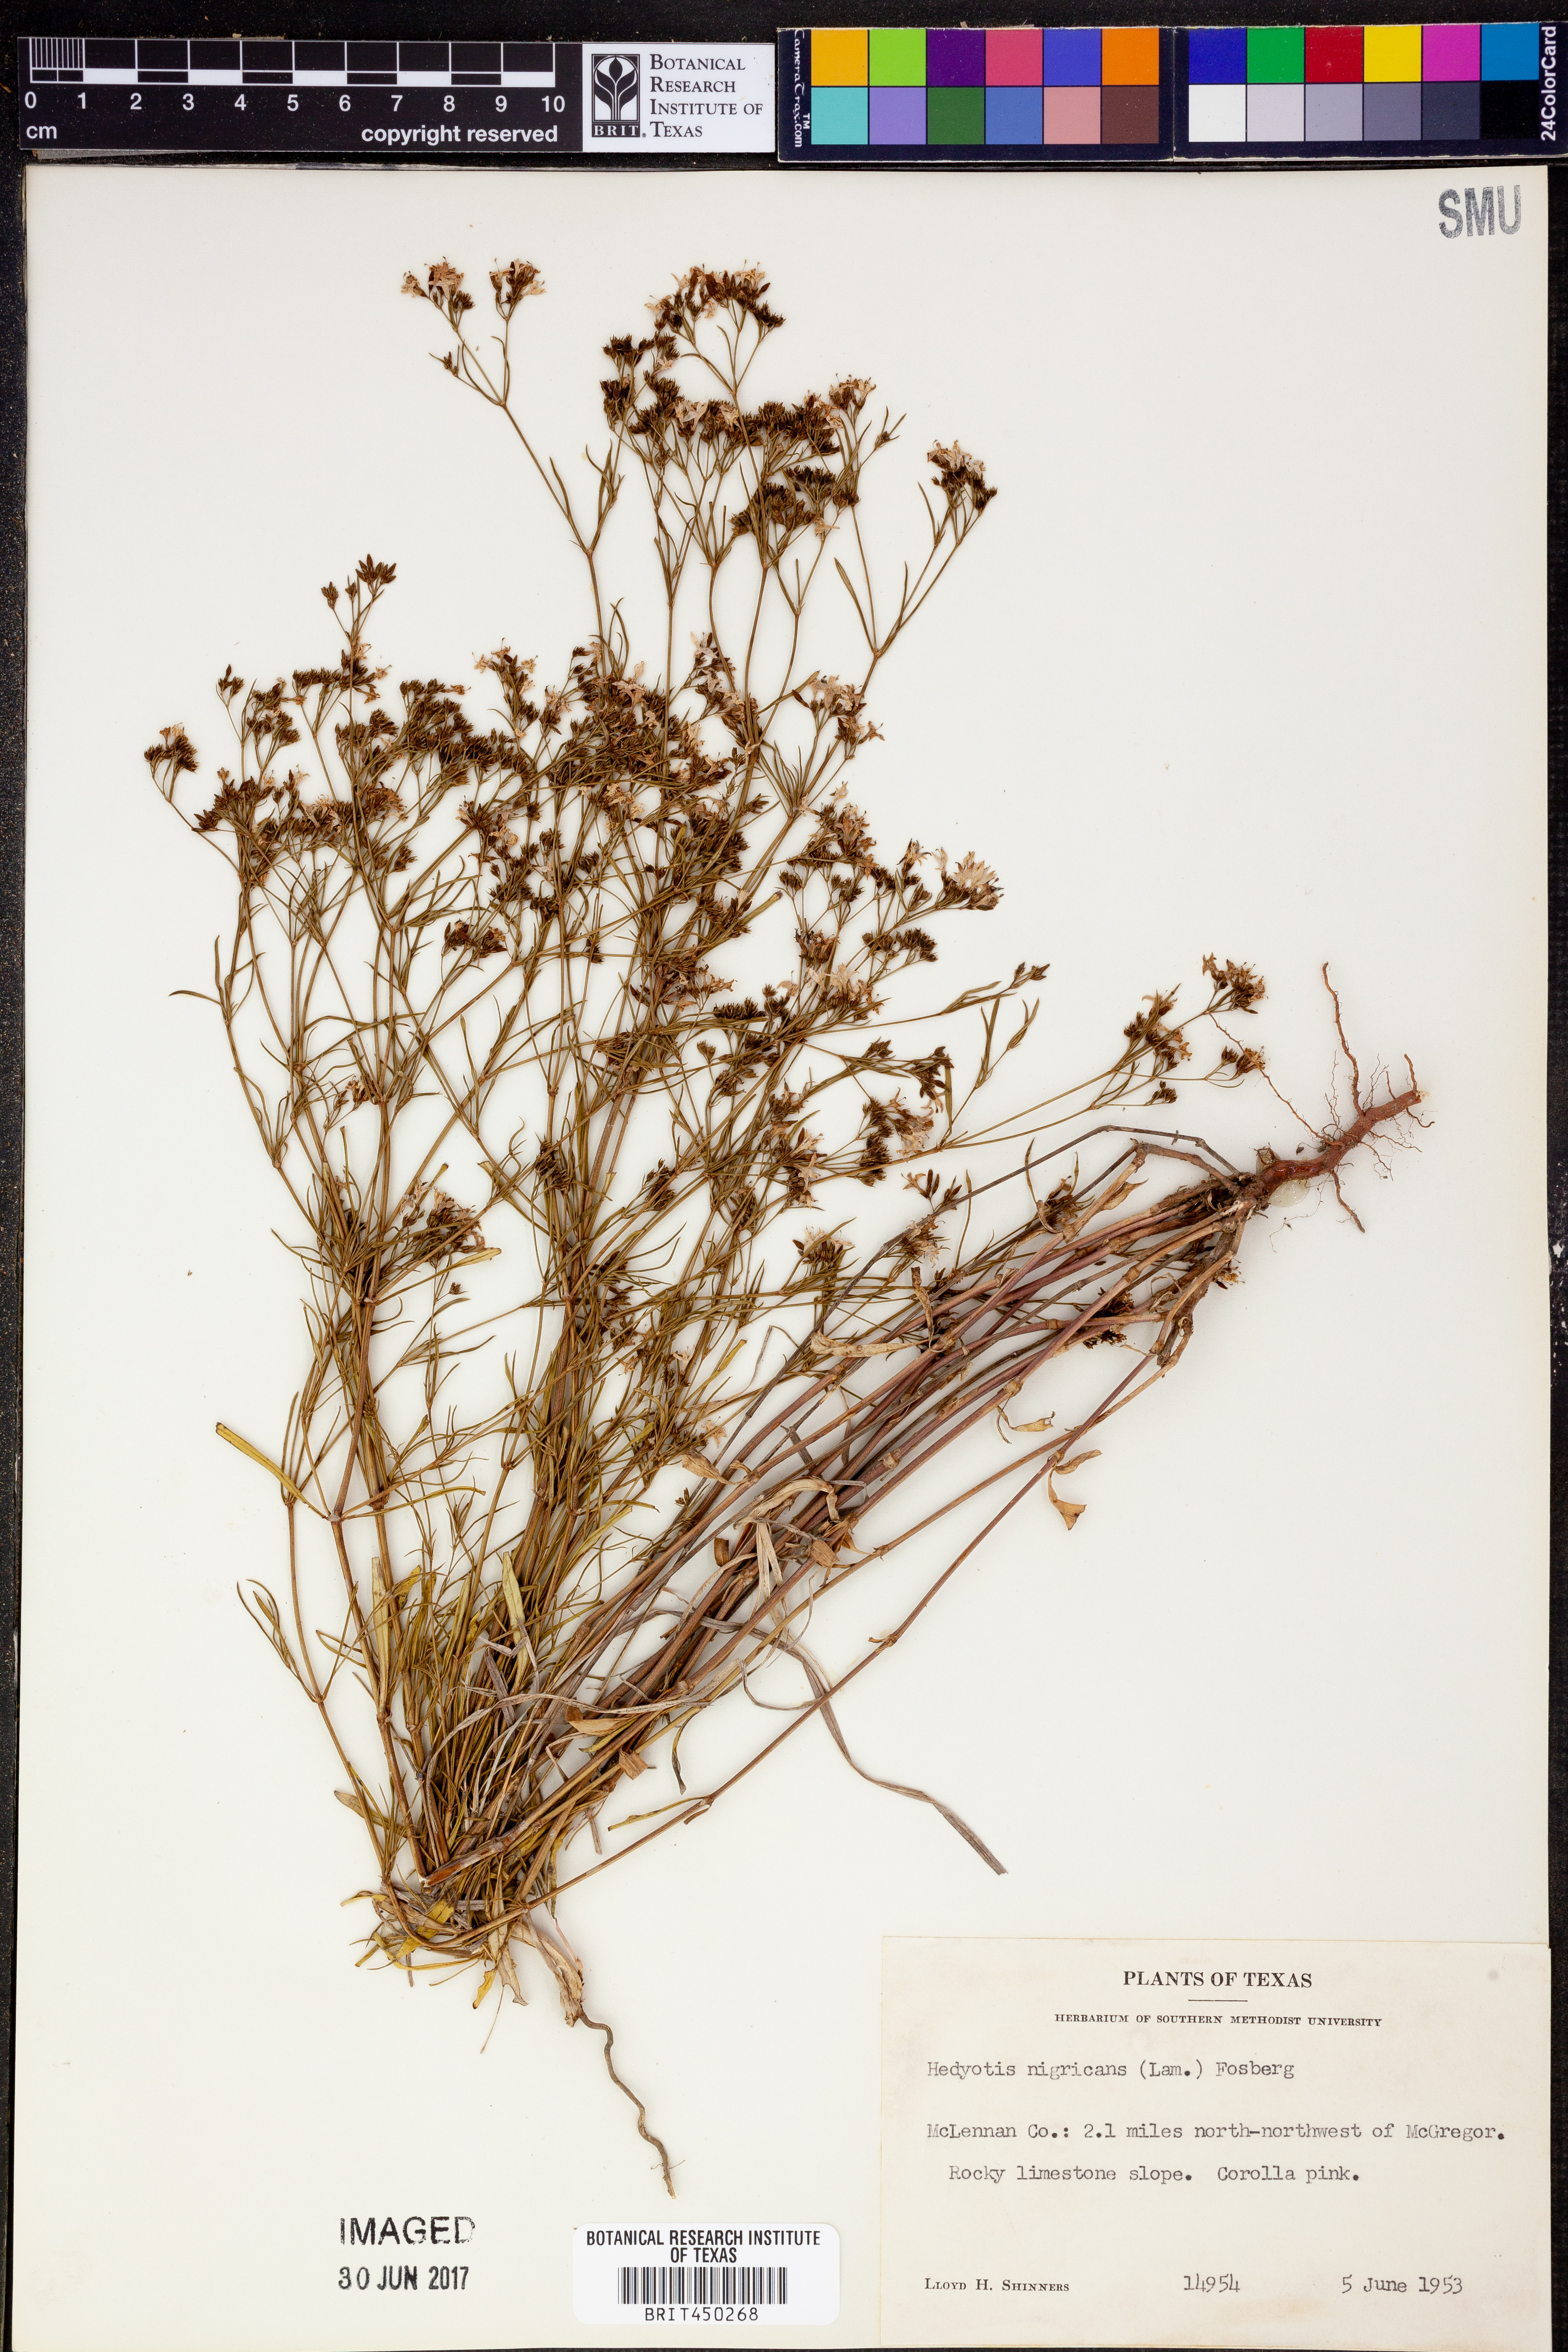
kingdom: Plantae
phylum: Tracheophyta
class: Magnoliopsida
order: Gentianales
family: Rubiaceae
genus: Stenaria
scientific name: Stenaria nigricans
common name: Diamondflowers
